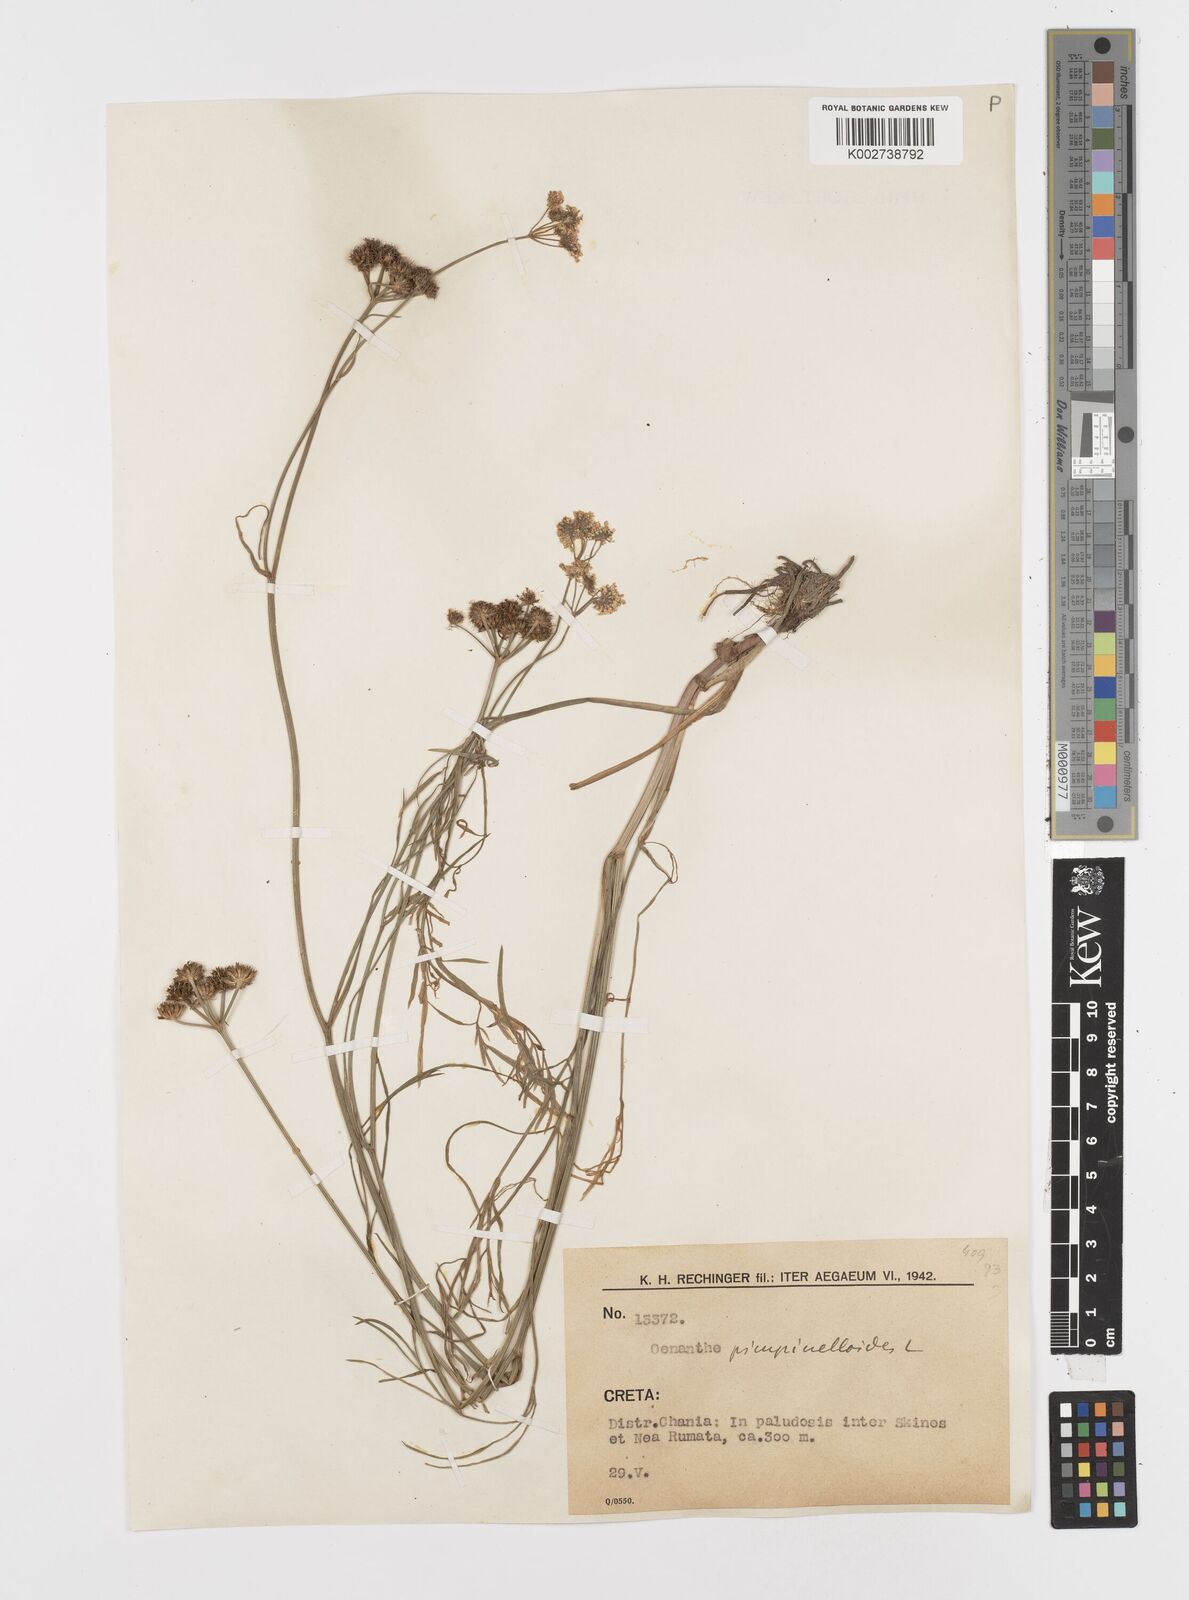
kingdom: Plantae
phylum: Tracheophyta
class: Magnoliopsida
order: Apiales
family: Apiaceae
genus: Oenanthe
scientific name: Oenanthe pimpinelloides
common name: Corky-fruited water-dropwort
